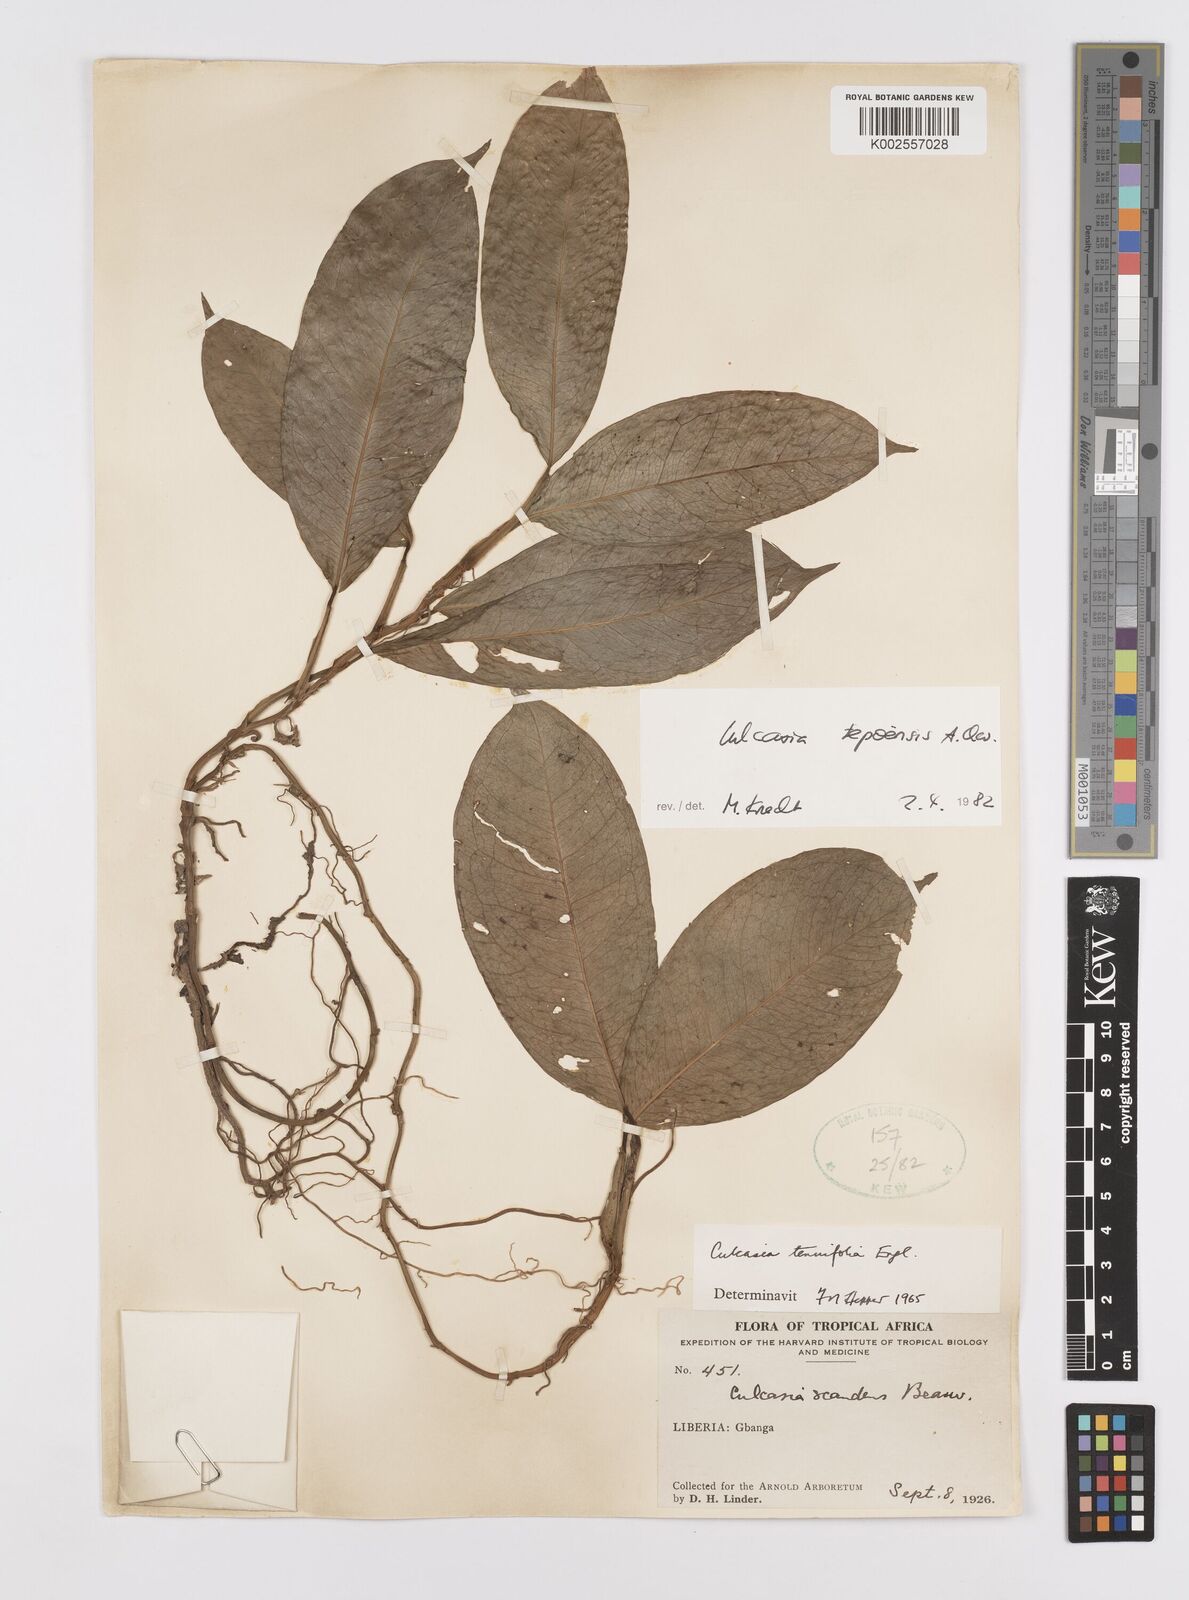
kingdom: Plantae
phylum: Tracheophyta
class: Liliopsida
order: Alismatales
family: Araceae
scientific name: Araceae
